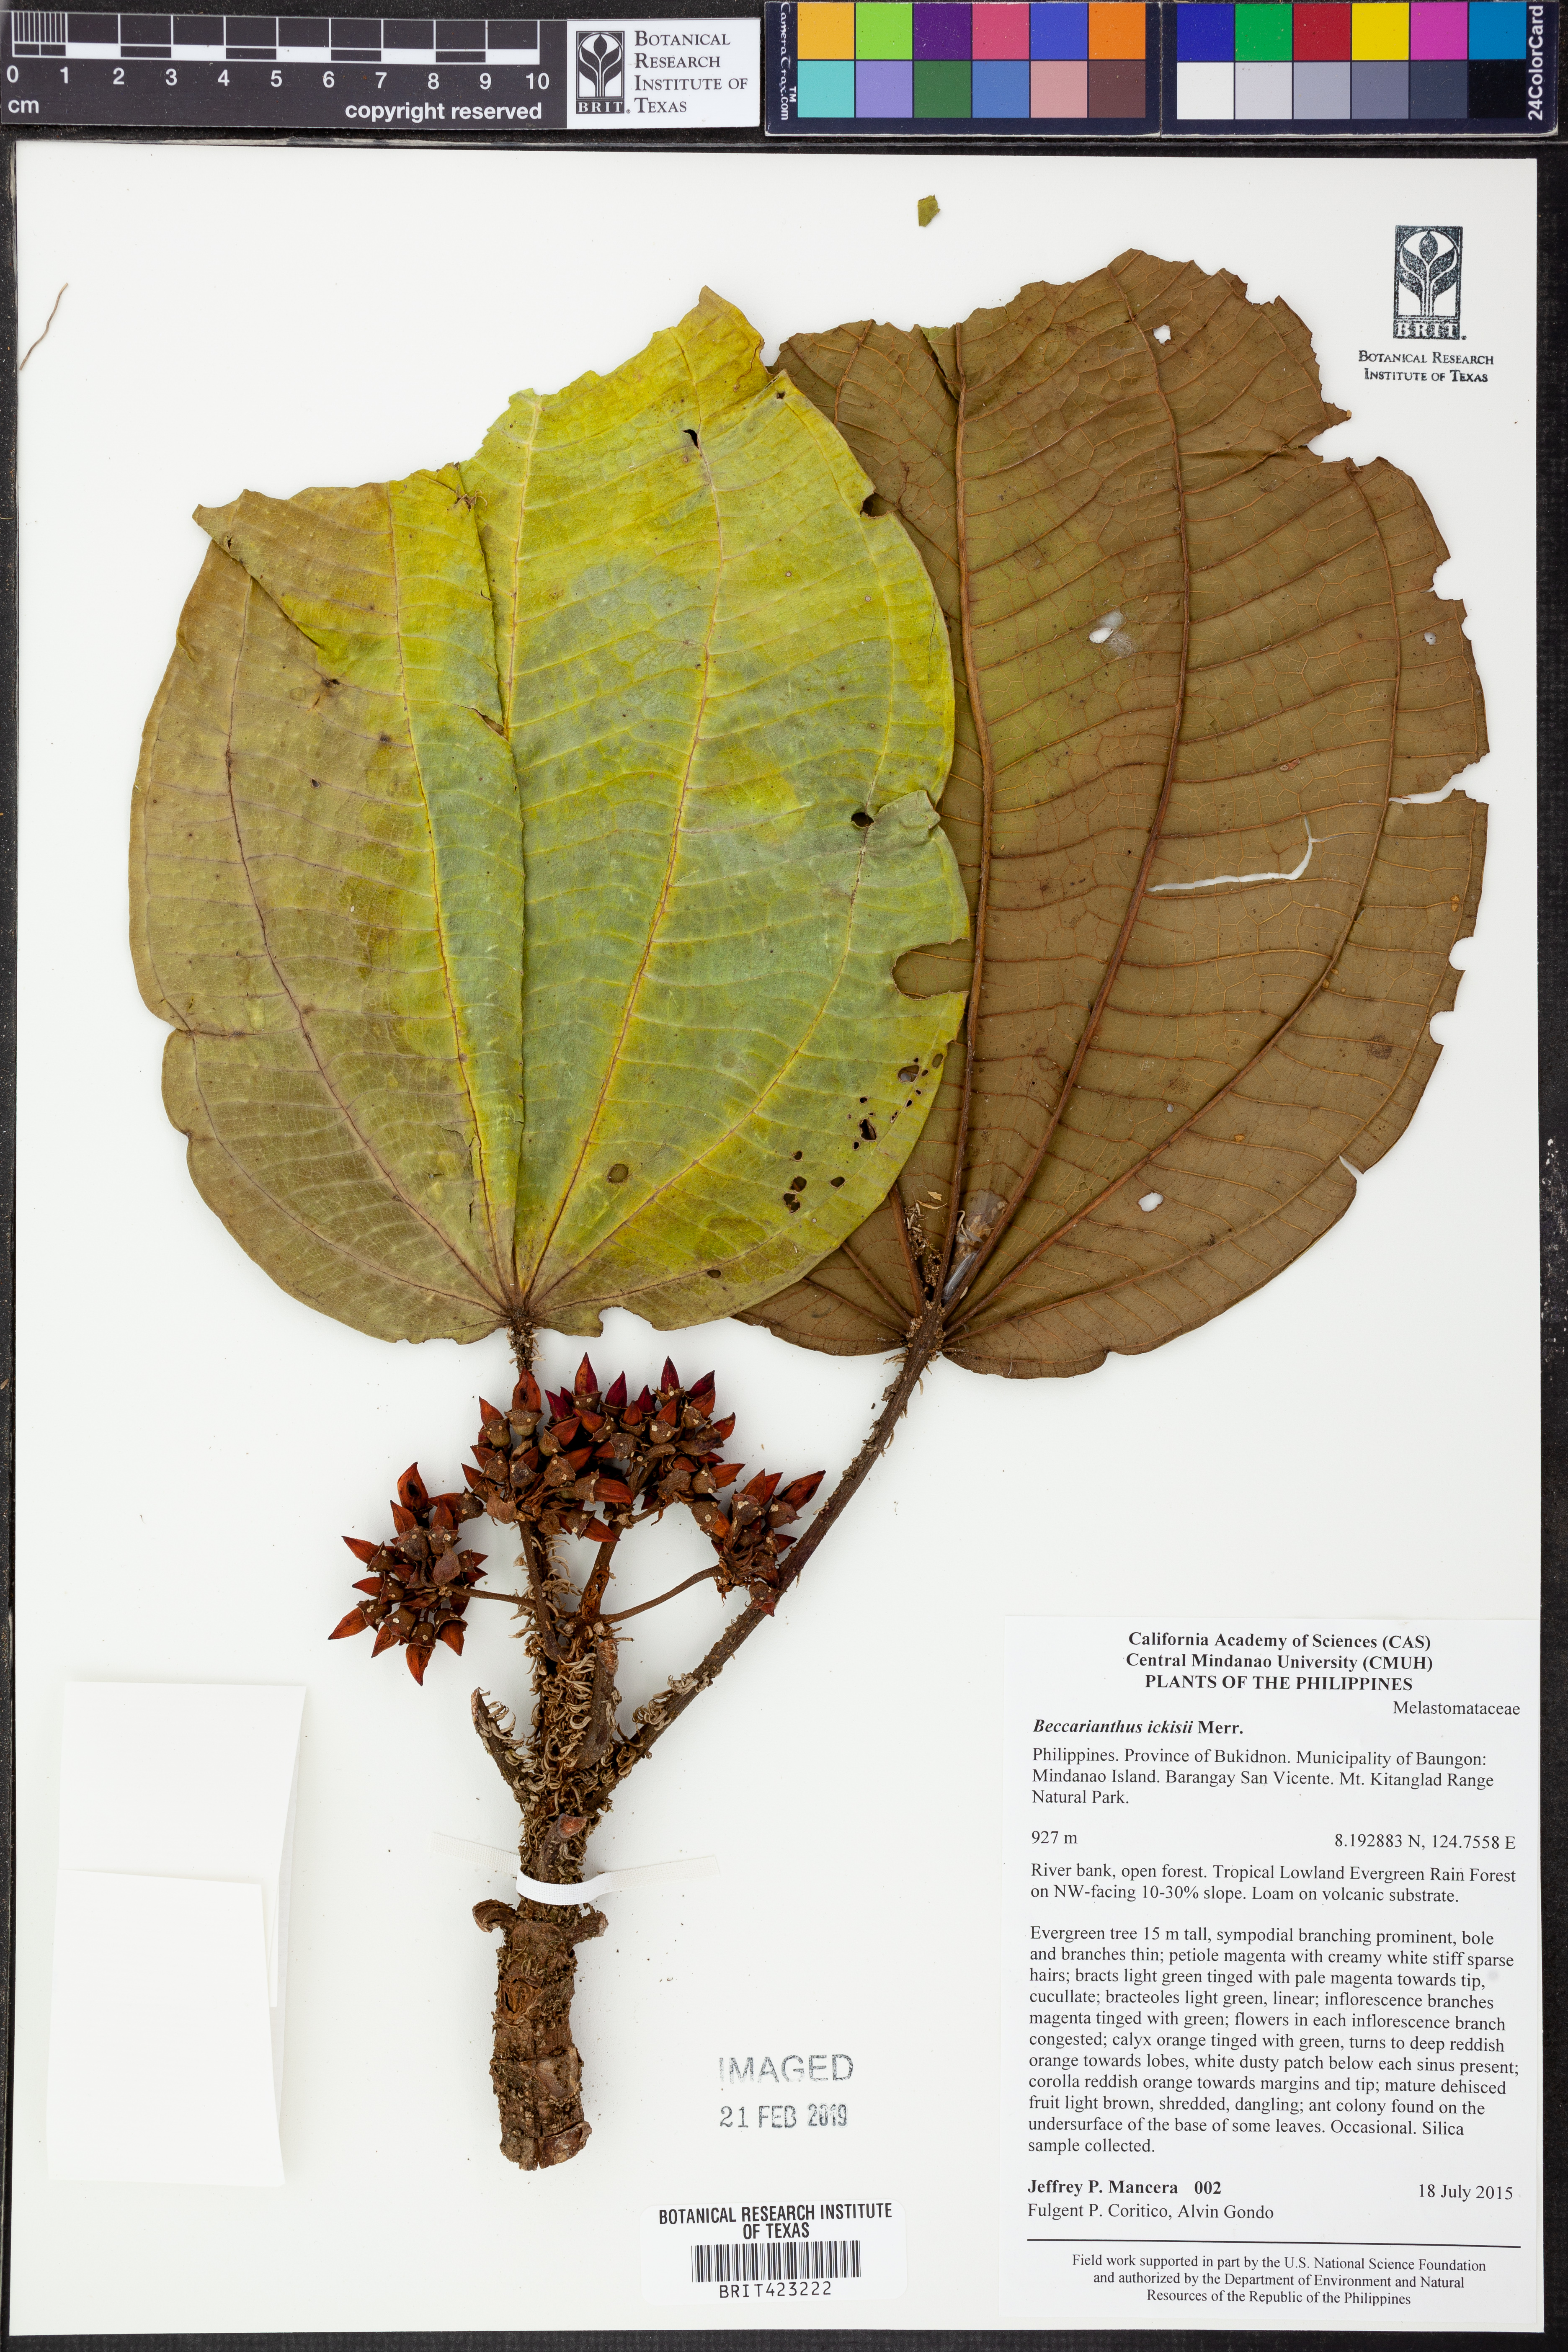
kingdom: Plantae
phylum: Tracheophyta
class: Magnoliopsida
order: Myrtales
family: Melastomataceae
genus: Beccarianthus
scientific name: Beccarianthus ickisii
